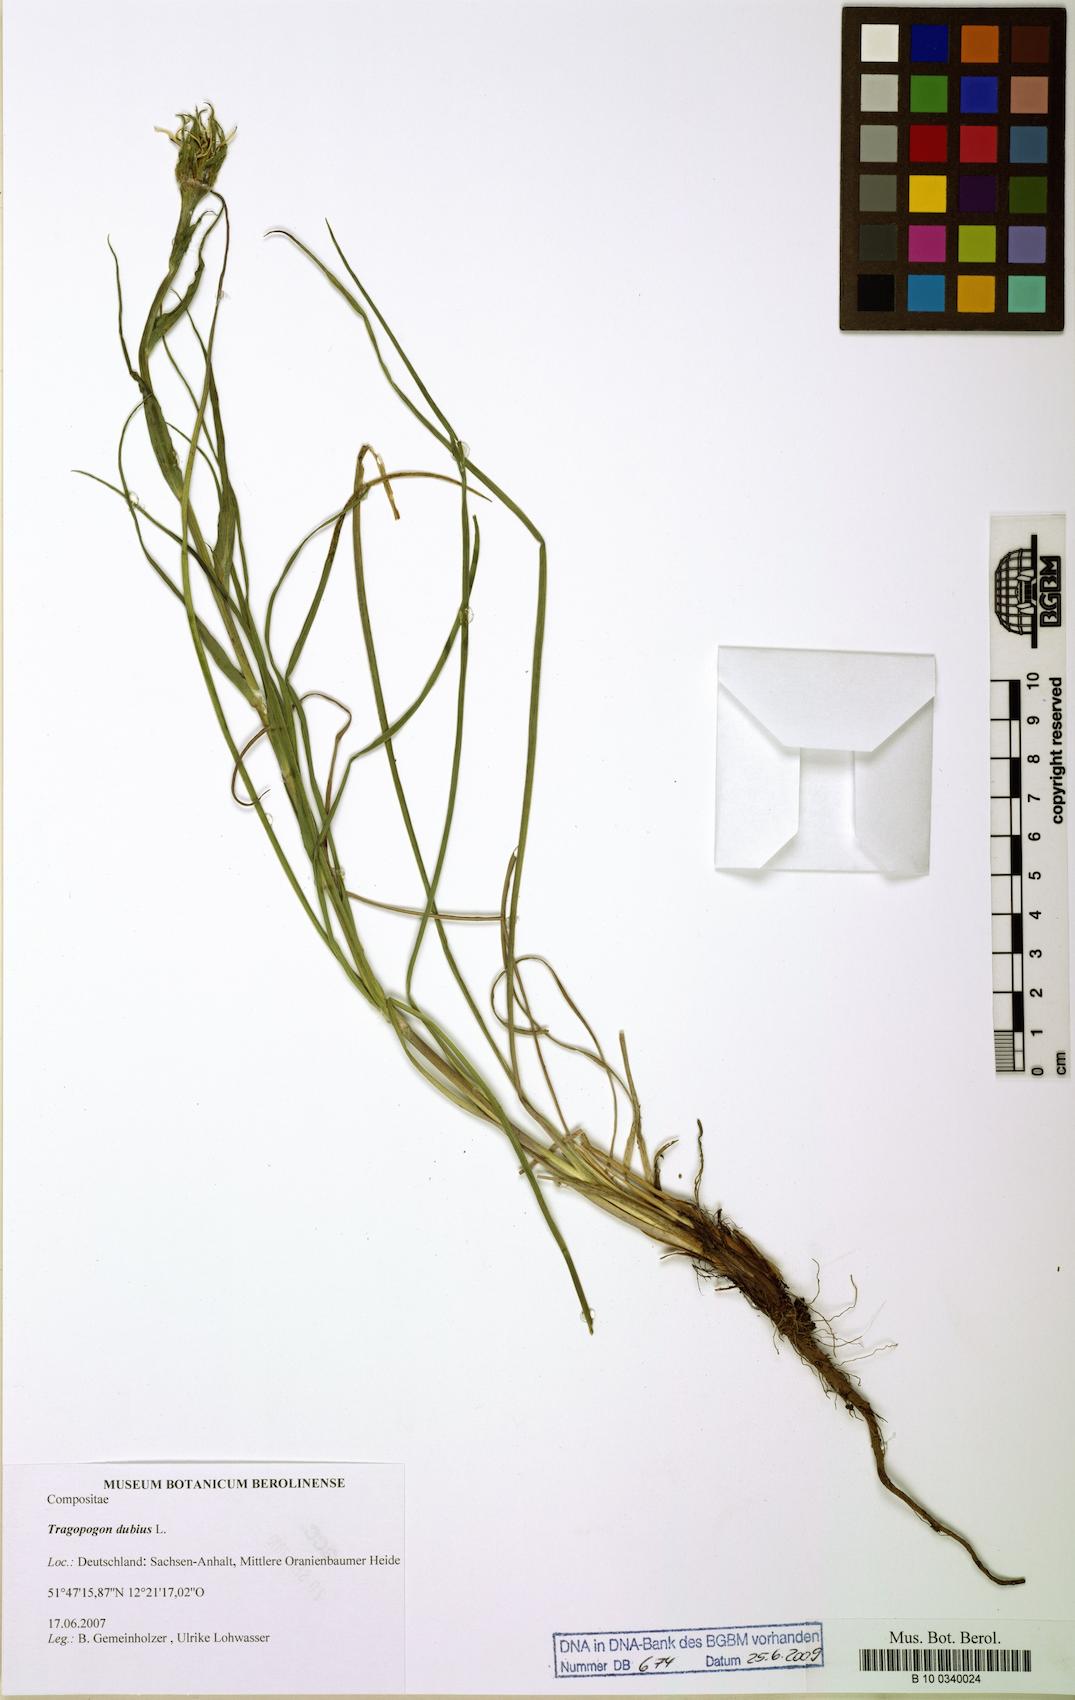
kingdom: Plantae
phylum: Tracheophyta
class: Magnoliopsida
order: Asterales
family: Asteraceae
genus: Tragopogon
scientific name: Tragopogon dubius
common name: Yellow salsify
